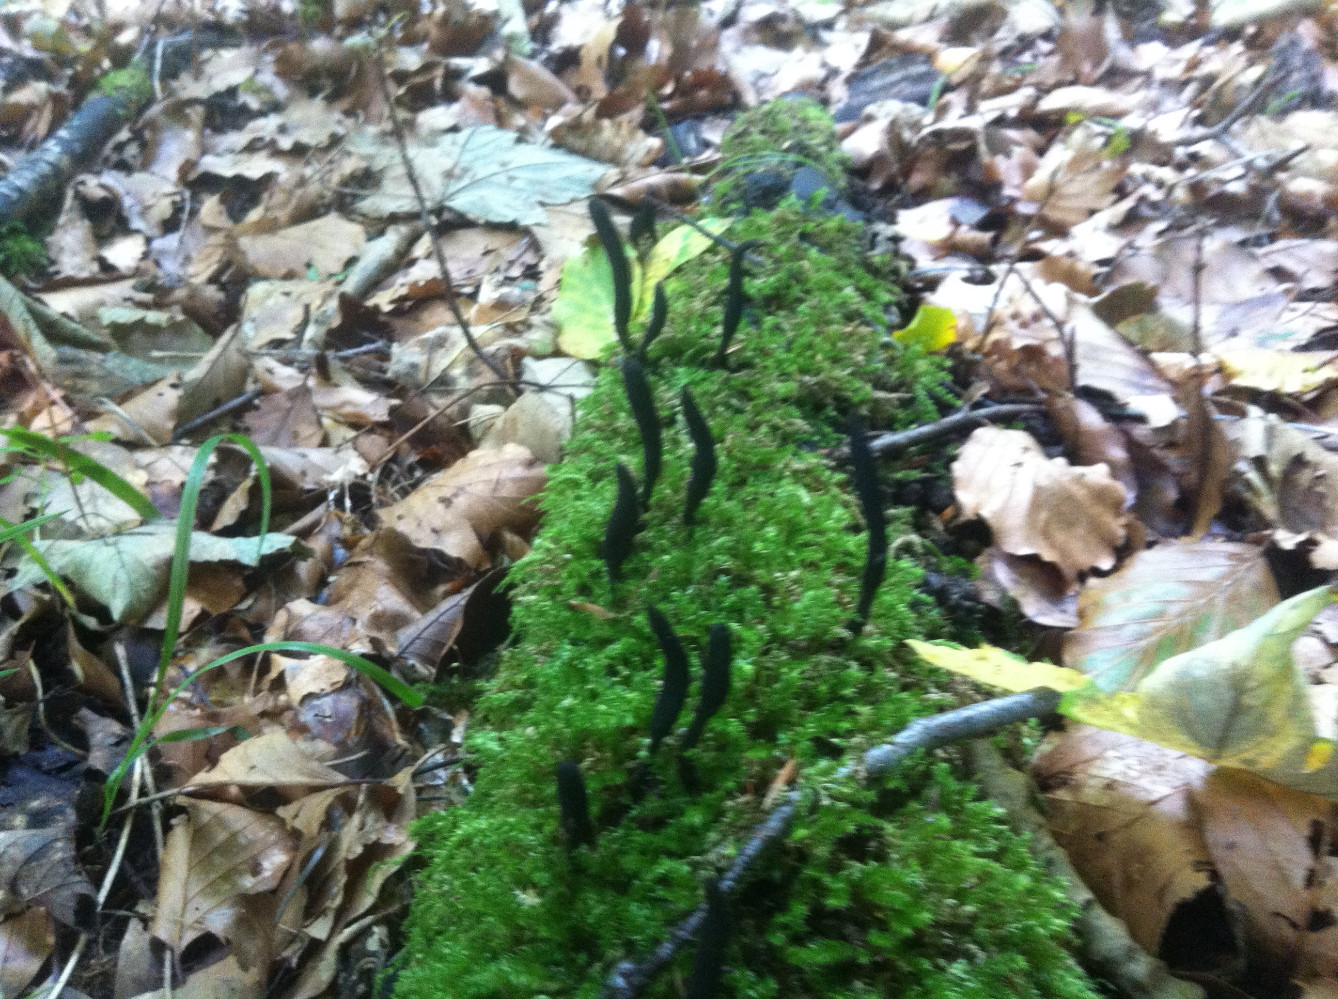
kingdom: Fungi
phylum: Ascomycota
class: Sordariomycetes
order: Xylariales
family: Xylariaceae
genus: Xylaria
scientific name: Xylaria longipes
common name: slank stødsvamp
